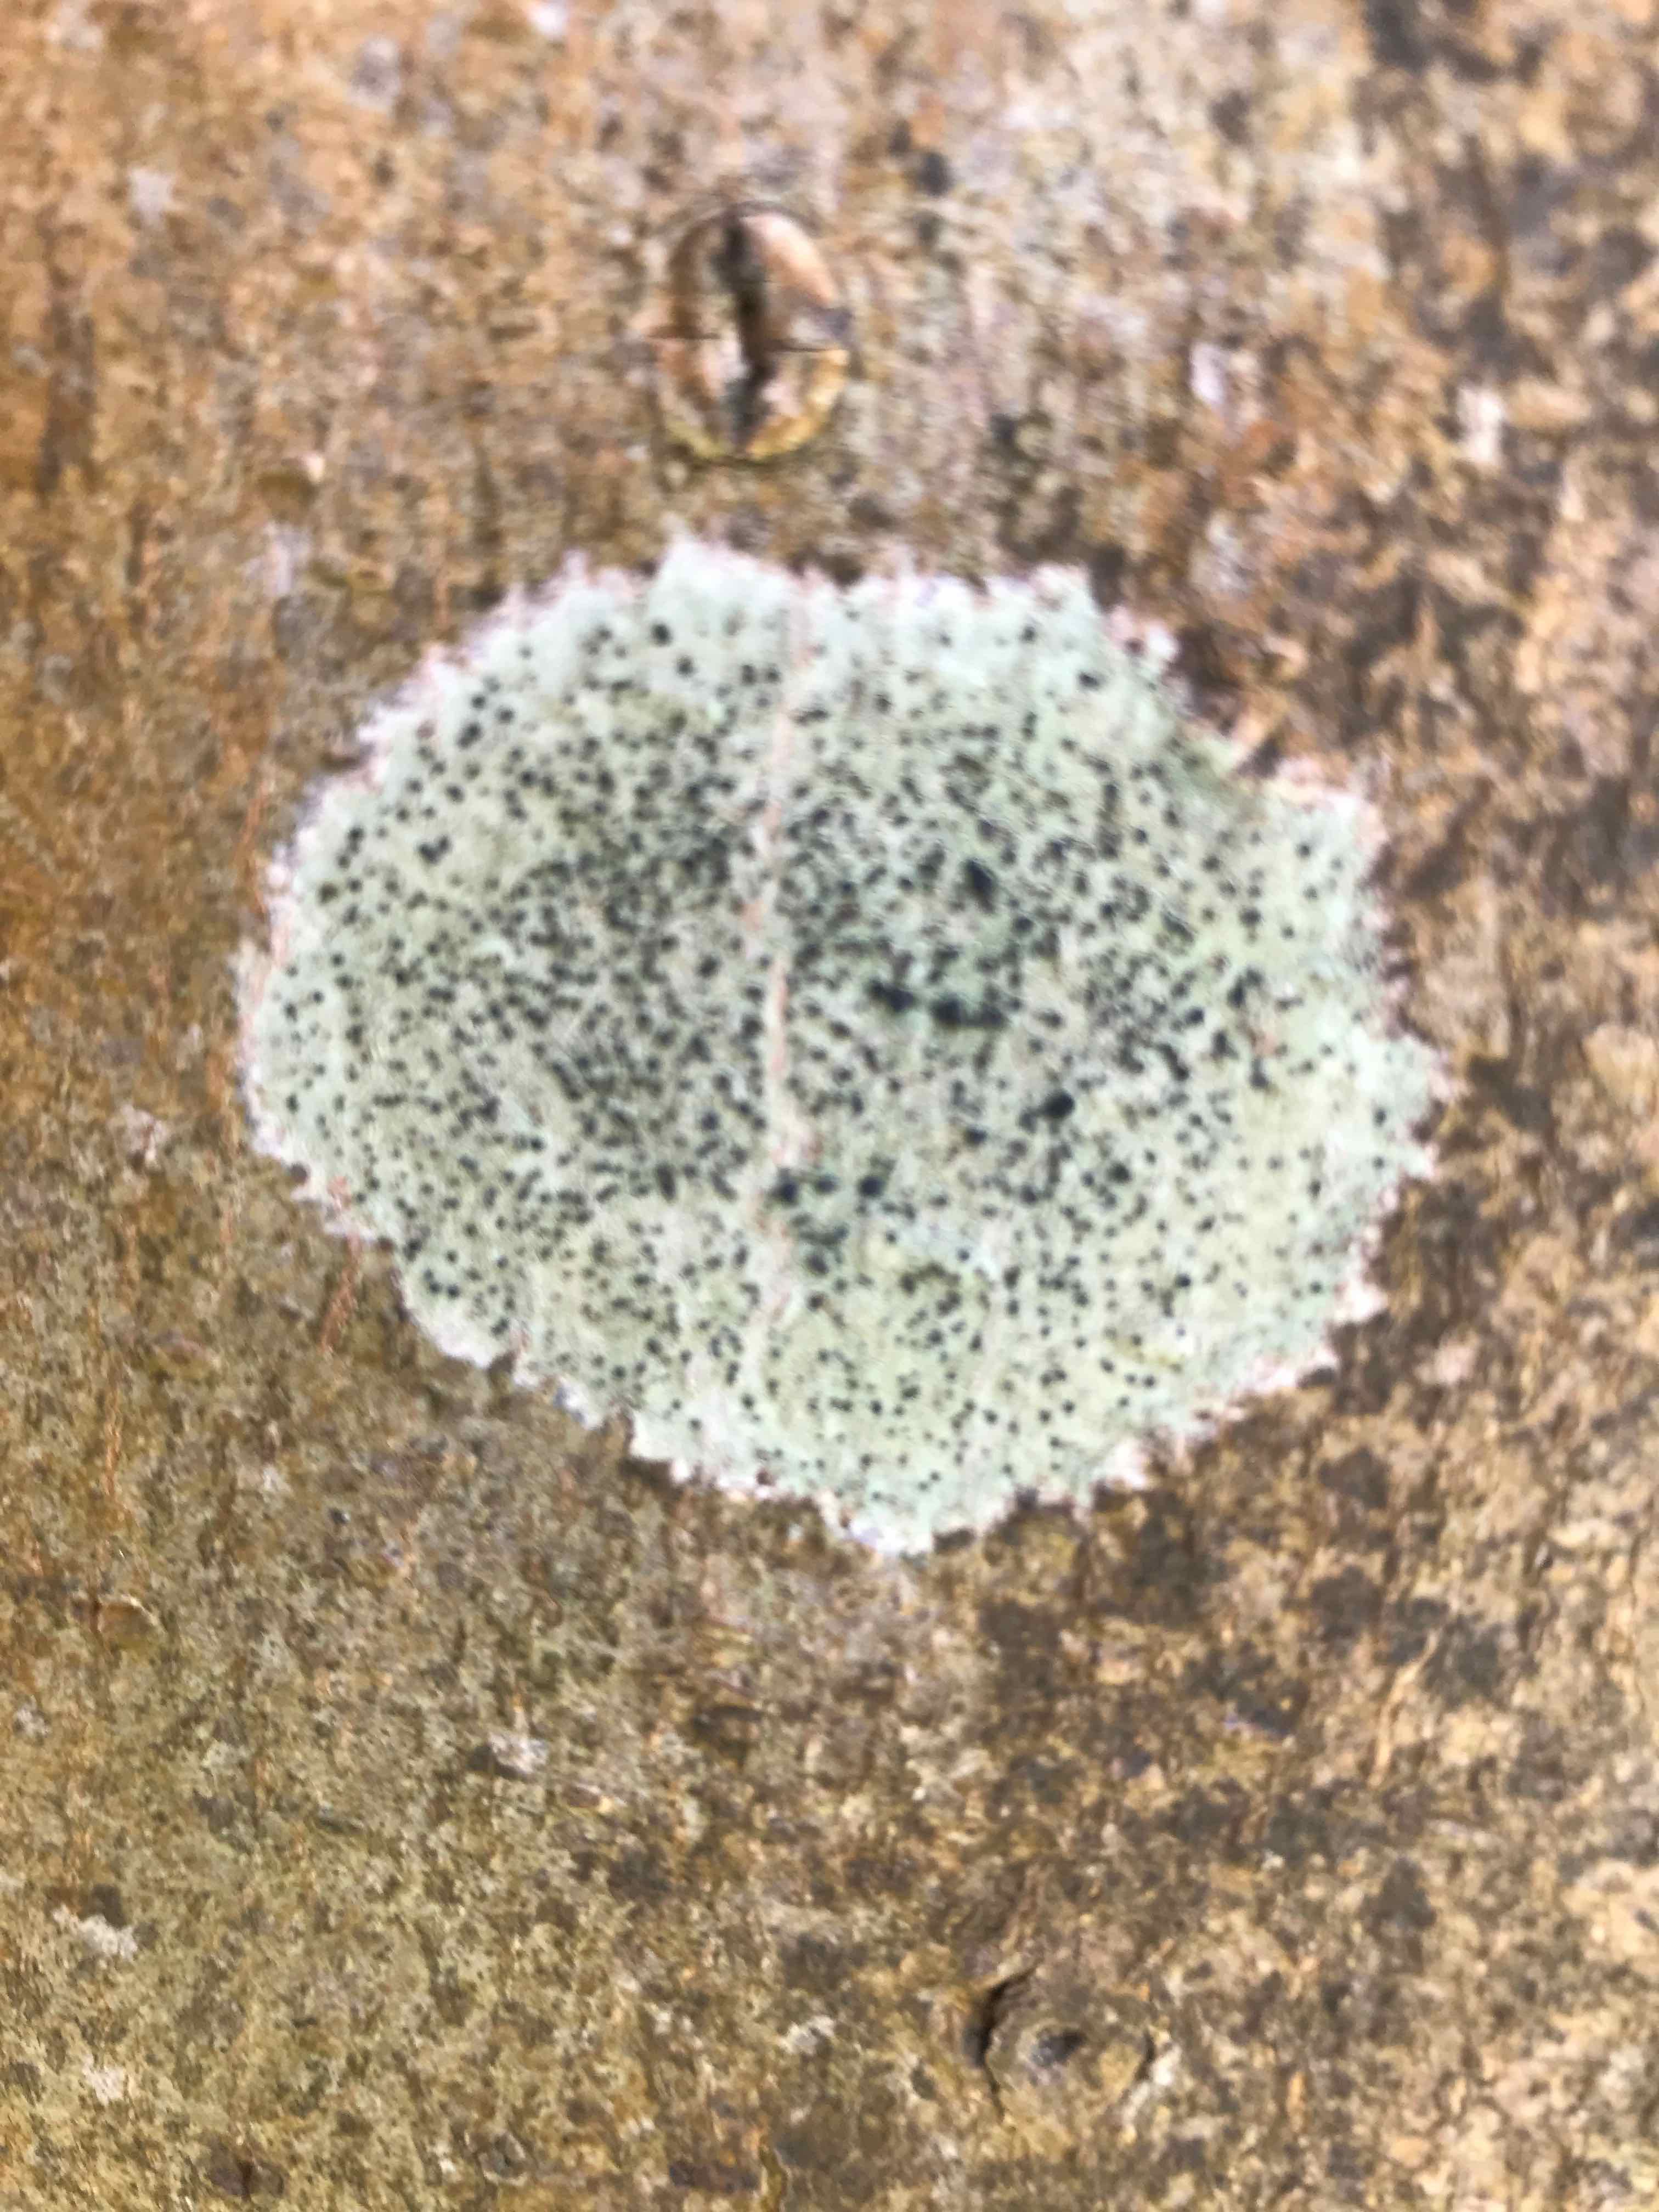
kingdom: Fungi
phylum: Ascomycota
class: Lecanoromycetes
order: Lecanorales
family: Lecanoraceae
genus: Lecidella
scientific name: Lecidella elaeochroma
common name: grågrøn skivelav
